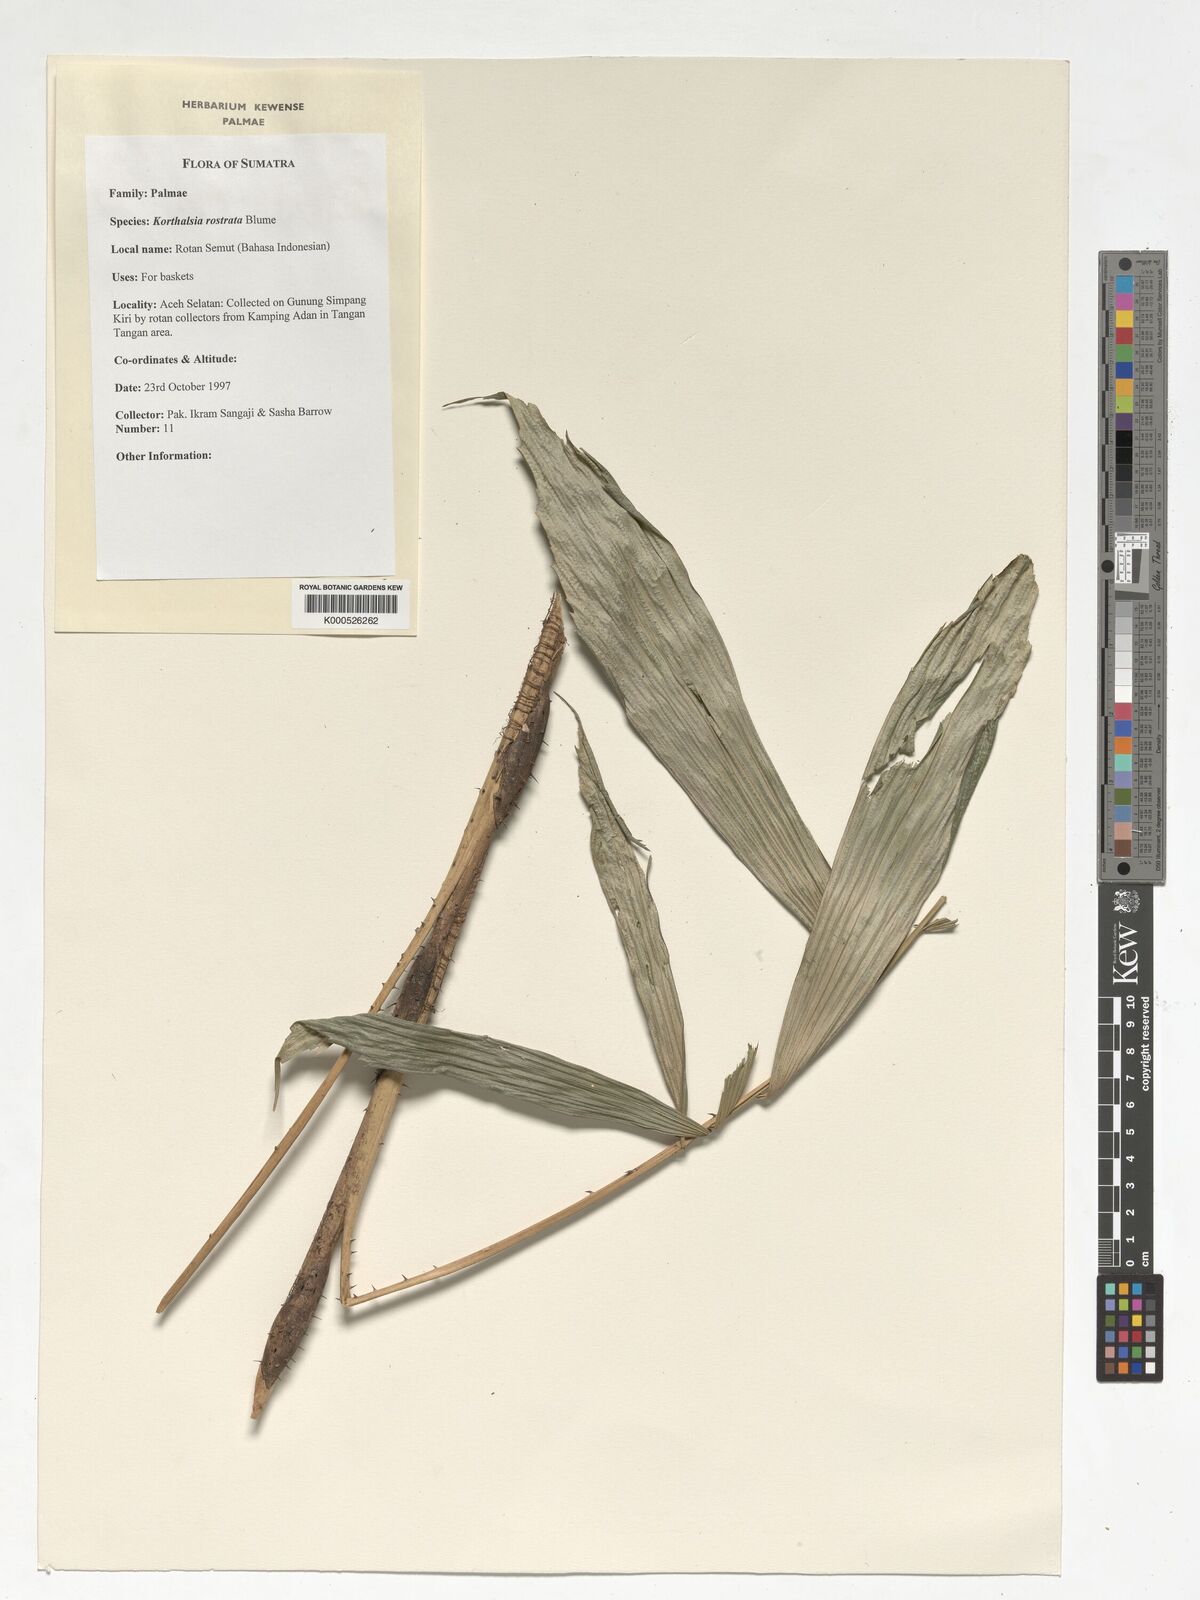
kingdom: Plantae
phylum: Tracheophyta
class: Liliopsida
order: Arecales
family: Arecaceae
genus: Korthalsia
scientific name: Korthalsia rostrata
